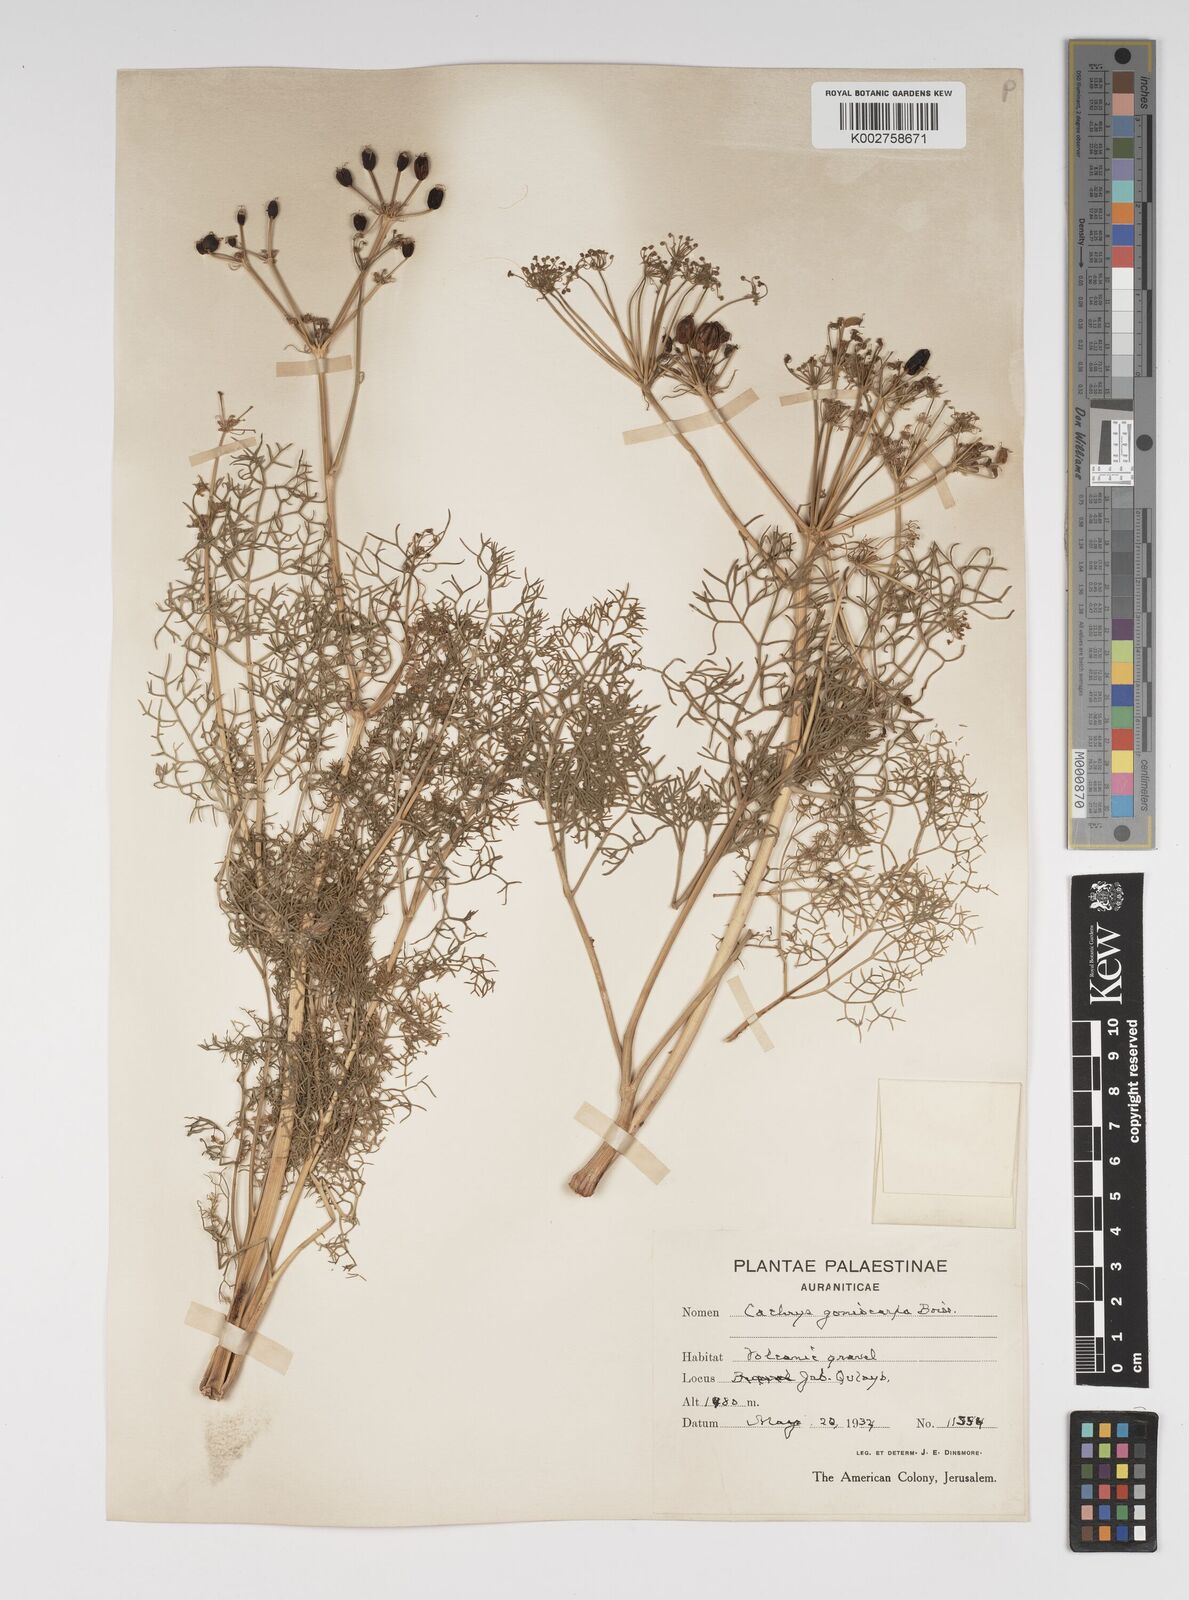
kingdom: Plantae
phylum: Tracheophyta
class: Magnoliopsida
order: Apiales
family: Apiaceae
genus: Prangos
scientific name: Prangos ferulacea
